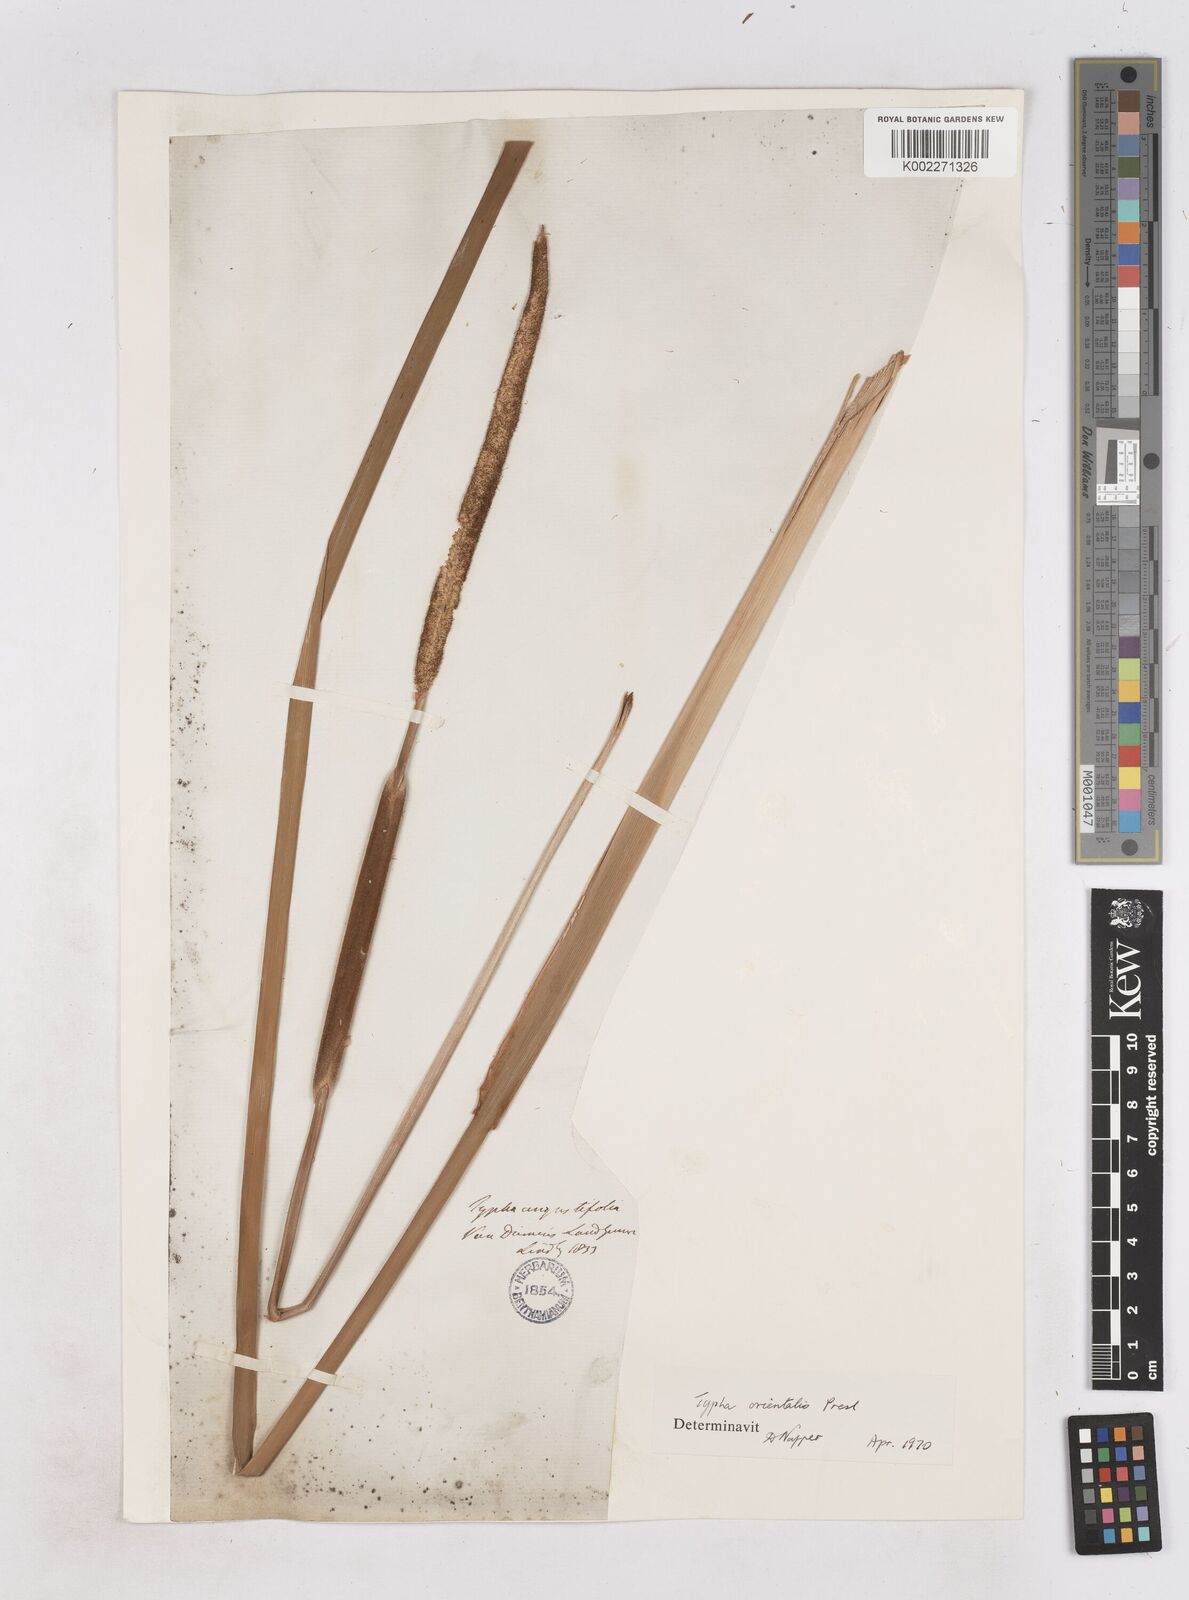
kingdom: Plantae
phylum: Tracheophyta
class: Liliopsida
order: Poales
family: Typhaceae
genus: Typha
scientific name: Typha orientalis
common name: Bullrush
